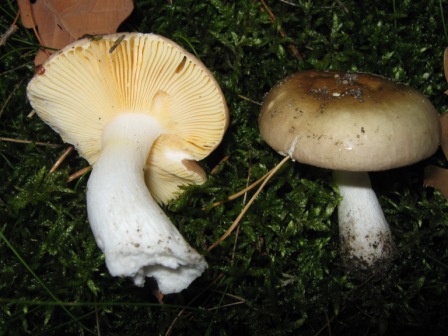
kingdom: Fungi
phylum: Basidiomycota
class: Agaricomycetes
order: Russulales
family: Russulaceae
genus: Russula
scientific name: Russula cessans
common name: fyrre-skørhat
